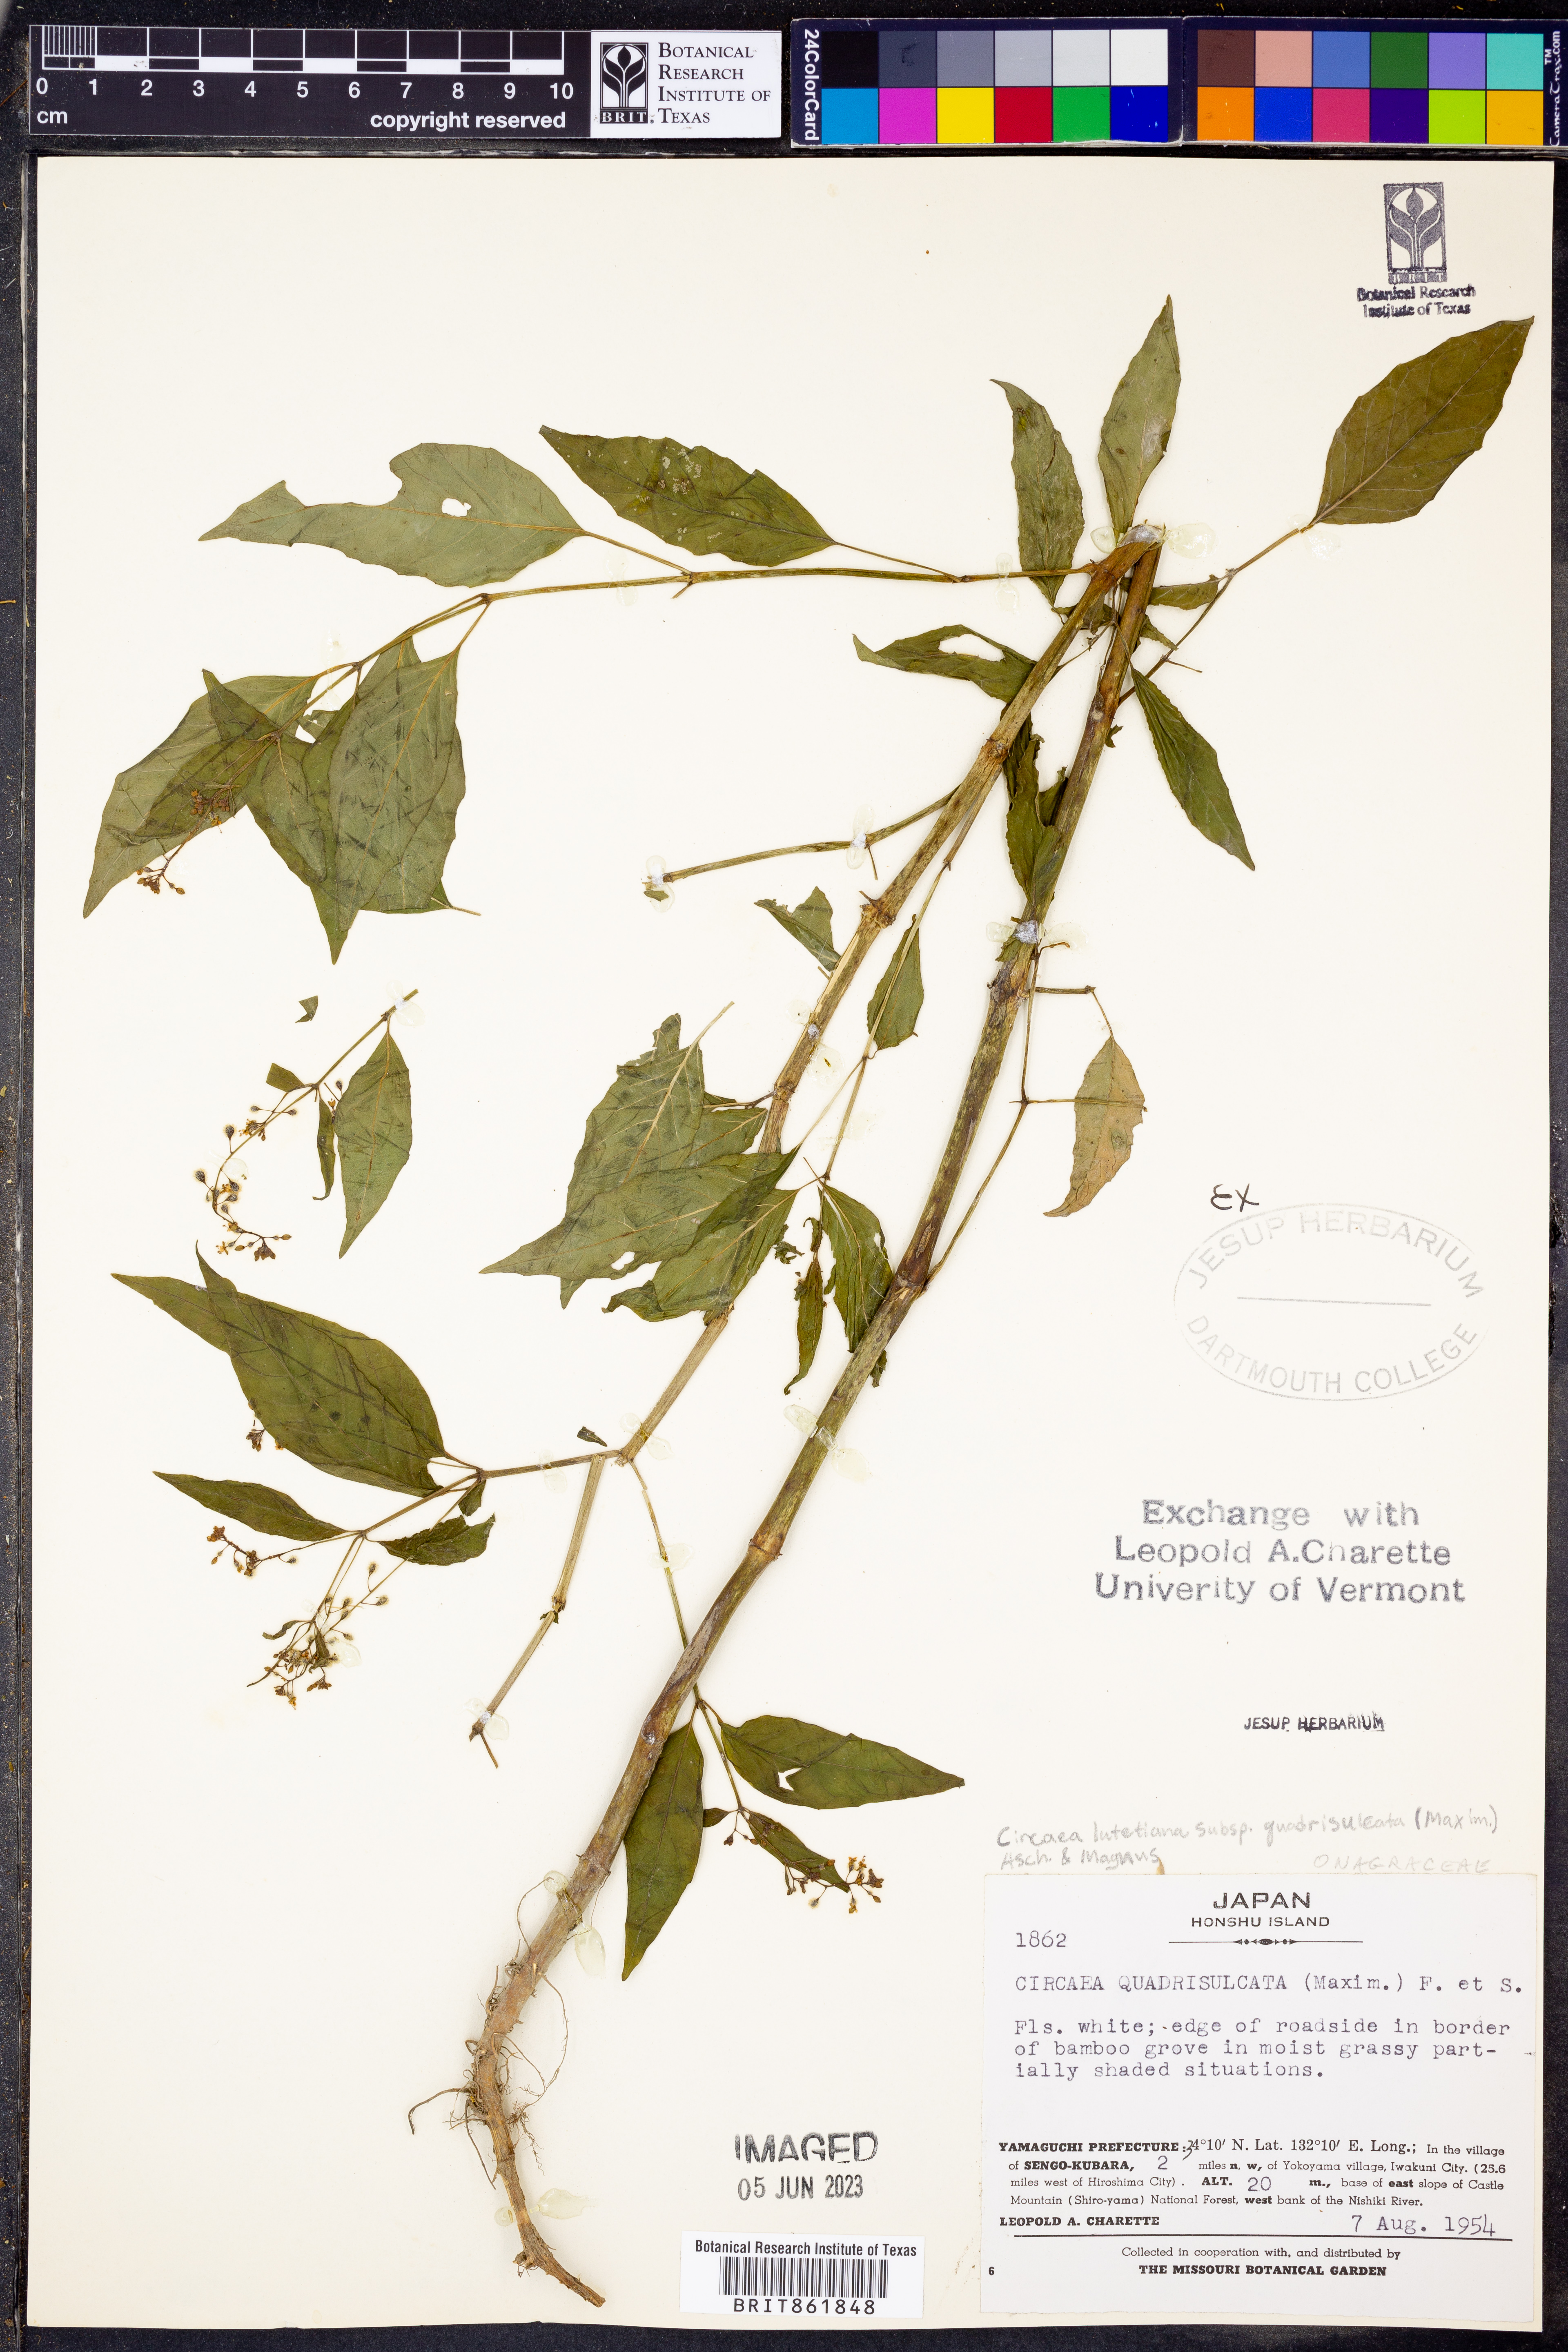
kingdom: Plantae
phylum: Tracheophyta
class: Magnoliopsida
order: Myrtales
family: Onagraceae
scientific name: Onagraceae
